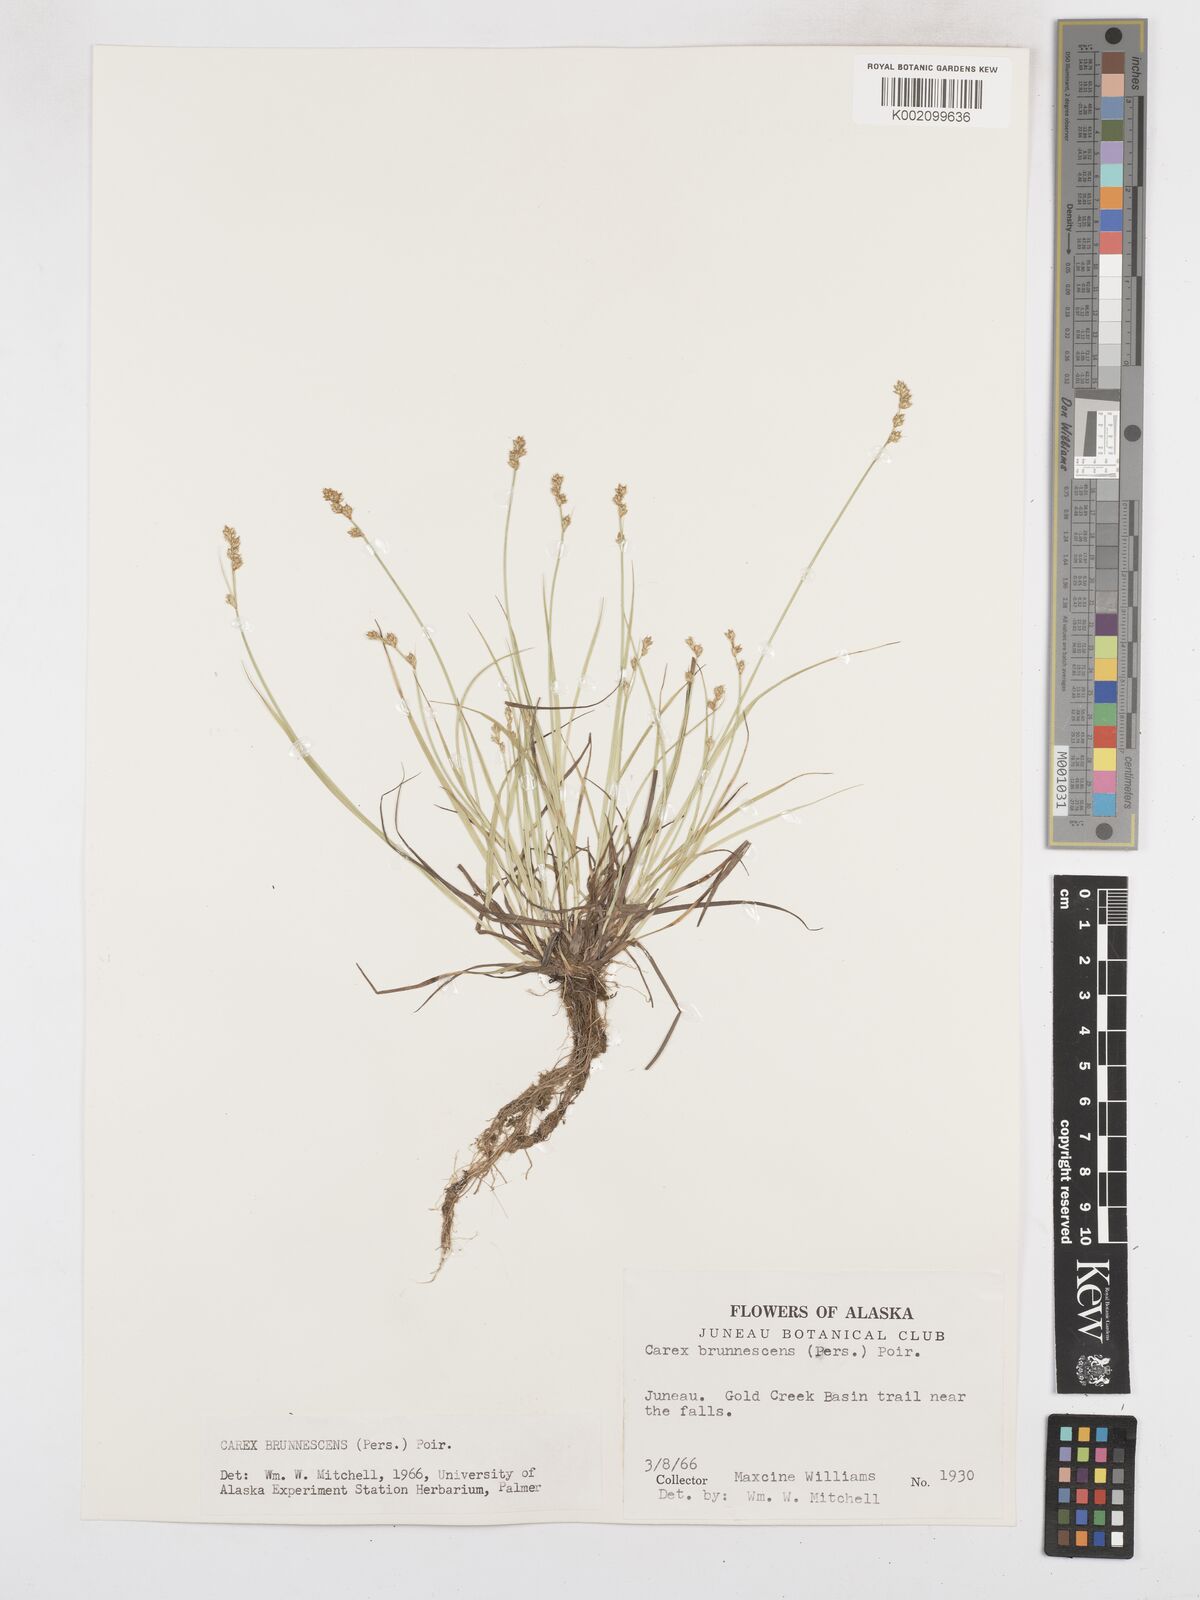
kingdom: Plantae
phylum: Tracheophyta
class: Liliopsida
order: Poales
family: Cyperaceae
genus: Carex
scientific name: Carex brunnescens
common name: Brown sedge
